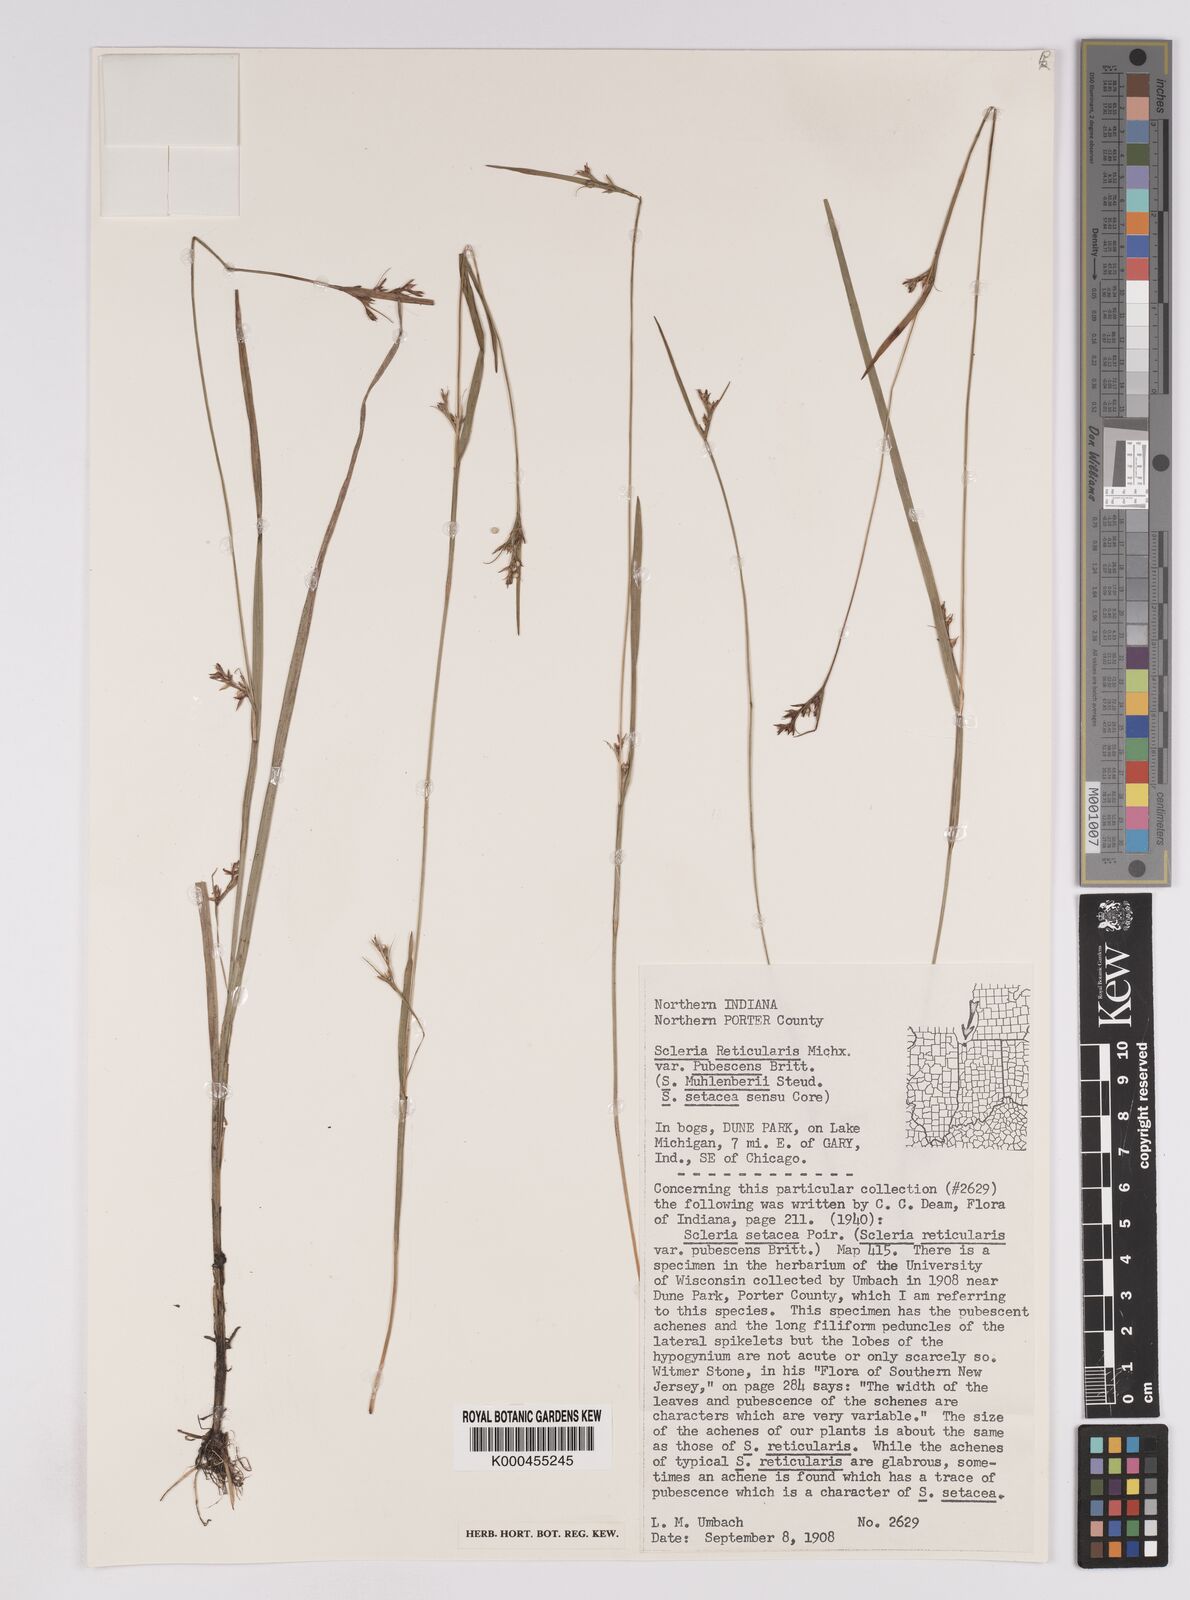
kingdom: Plantae
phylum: Tracheophyta
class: Liliopsida
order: Poales
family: Cyperaceae
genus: Scleria
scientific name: Scleria
